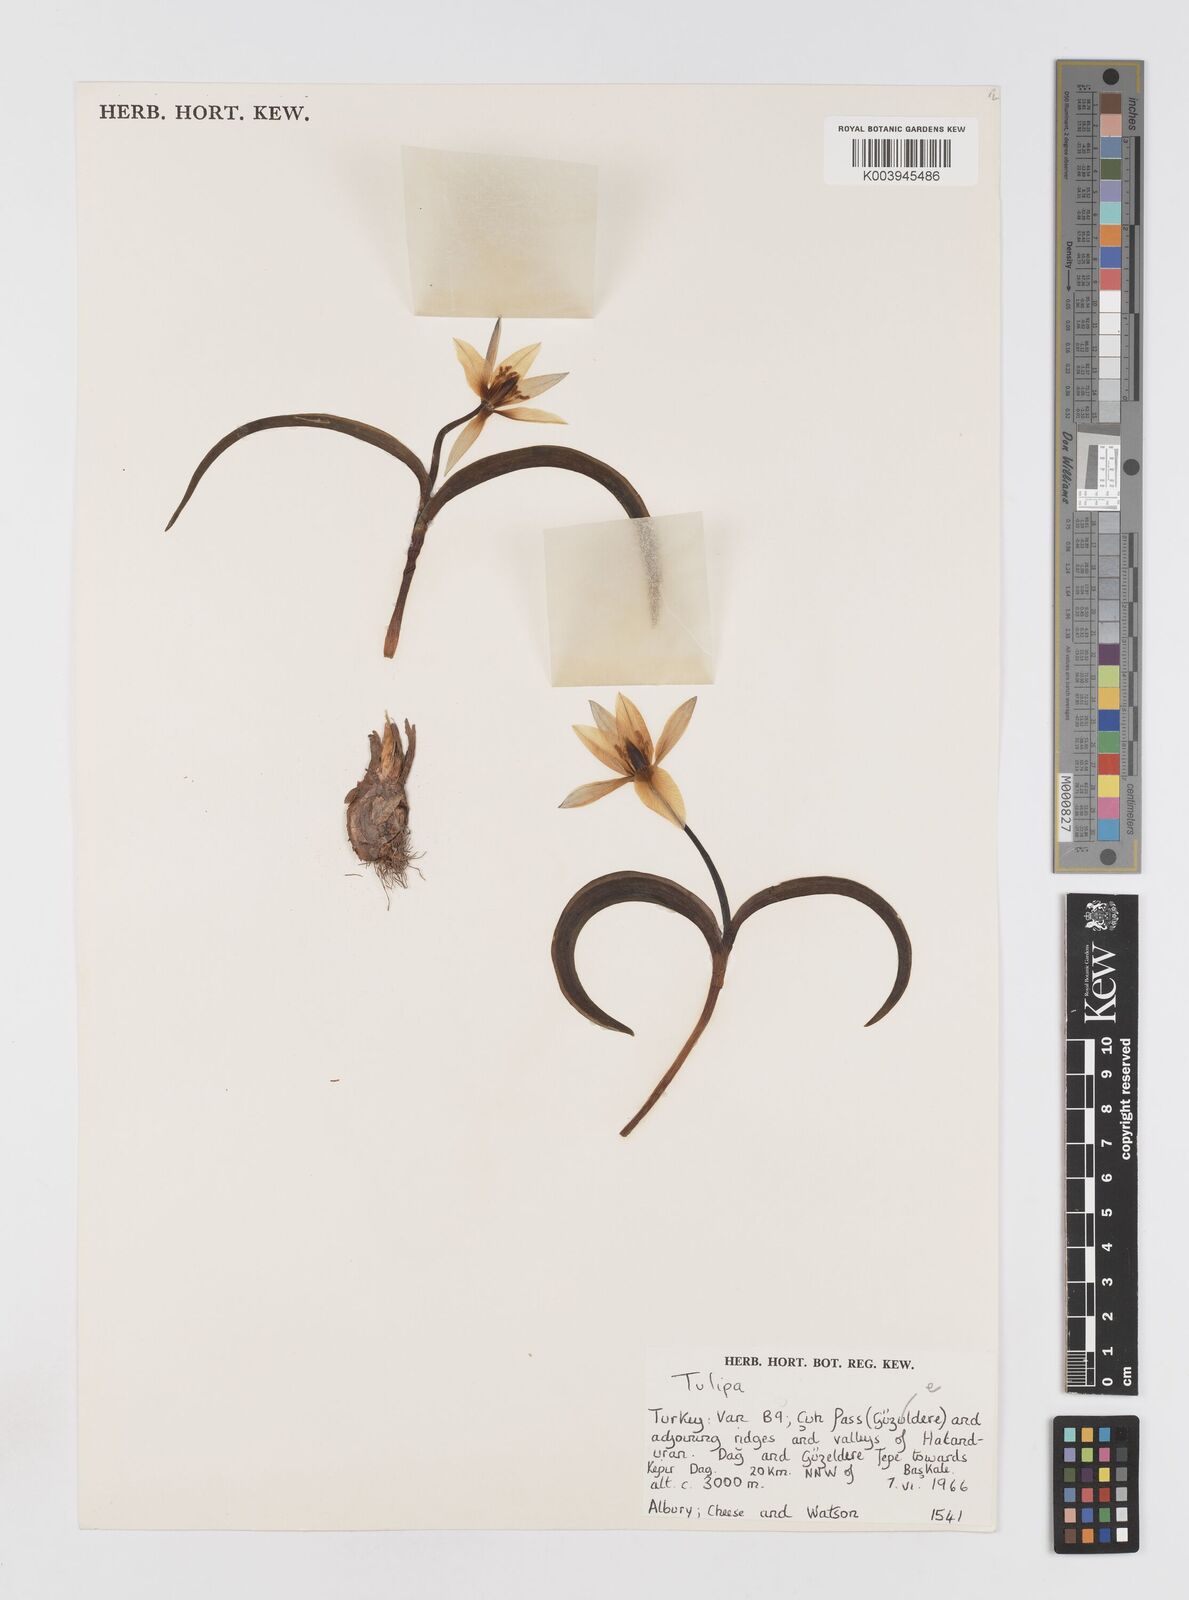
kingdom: Plantae
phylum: Tracheophyta
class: Liliopsida
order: Liliales
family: Liliaceae
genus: Tulipa
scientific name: Tulipa biflora
